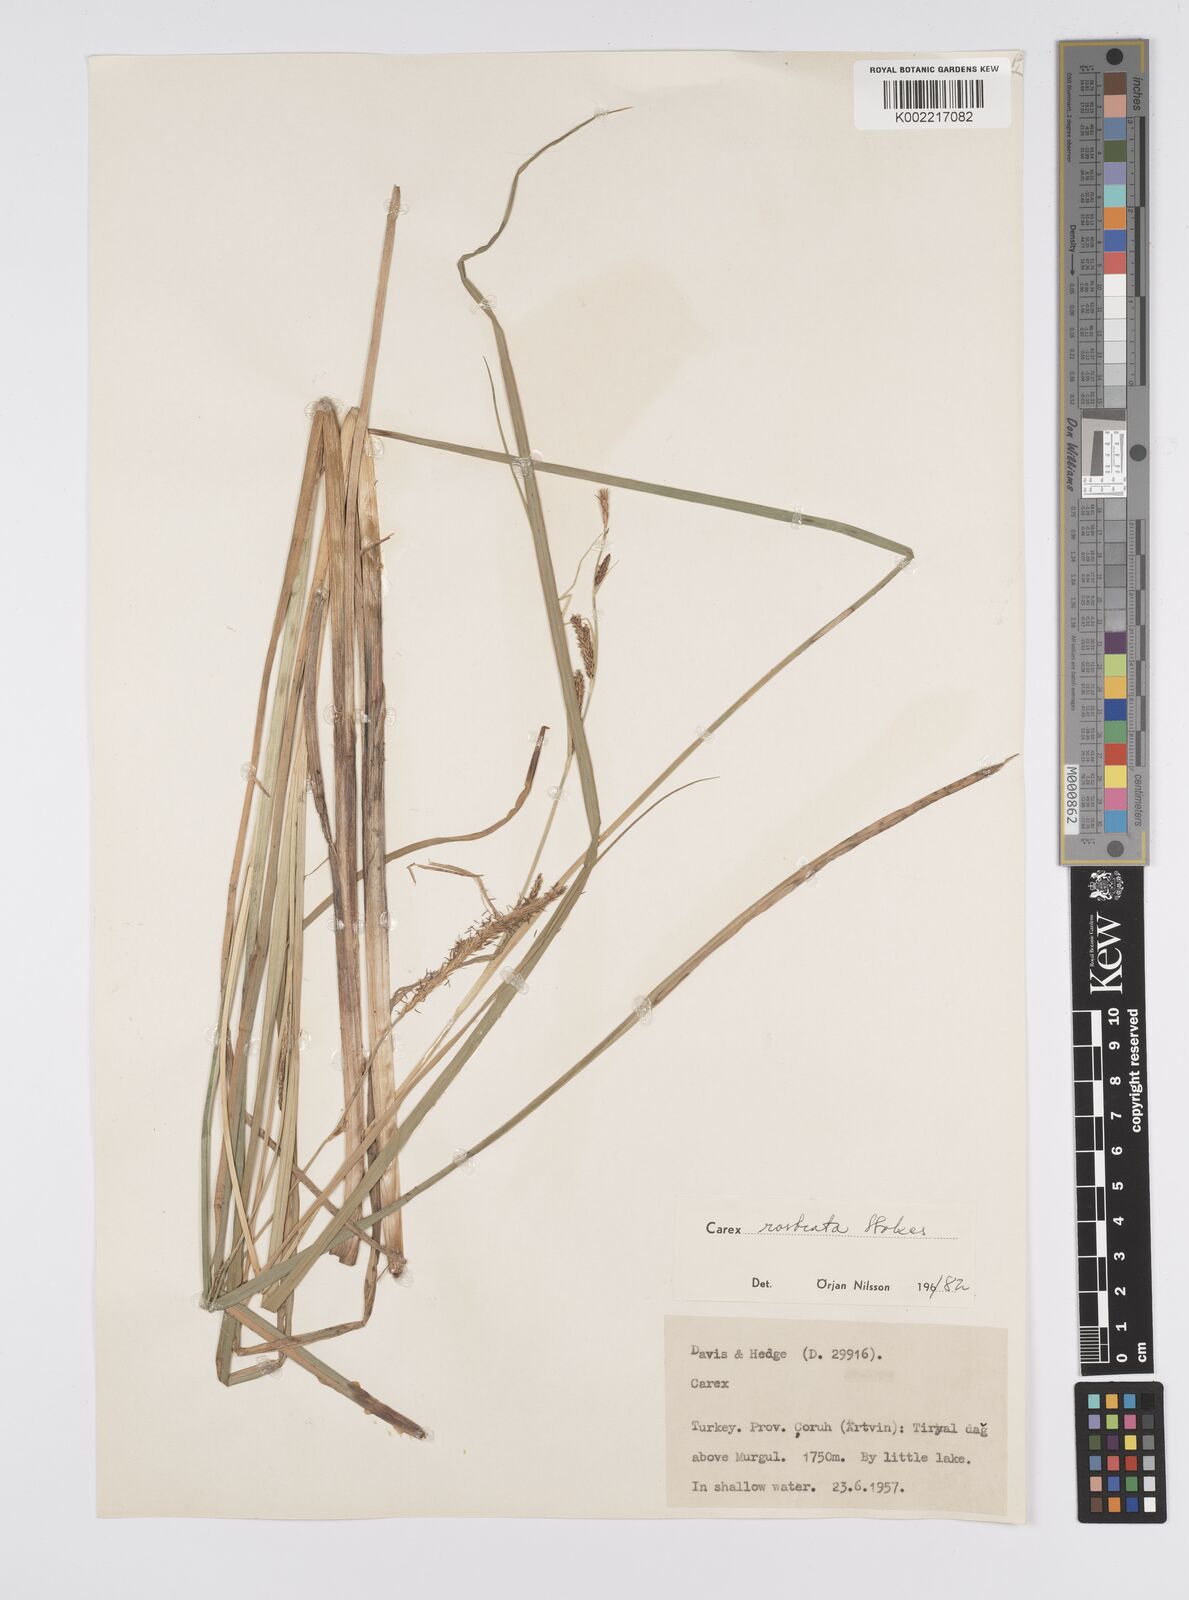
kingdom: Plantae
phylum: Tracheophyta
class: Liliopsida
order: Poales
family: Cyperaceae
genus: Carex
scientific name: Carex rostrata
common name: Bottle sedge
